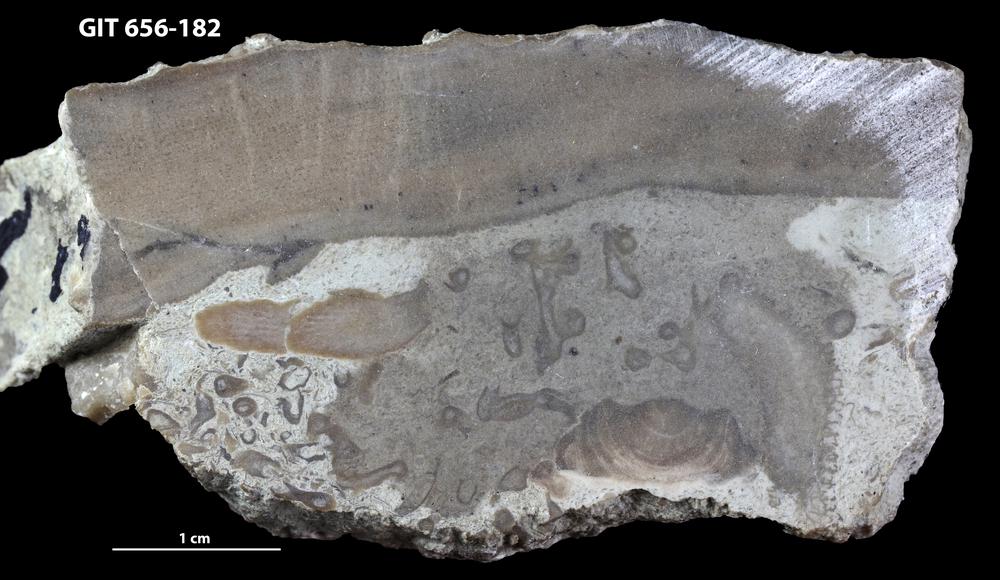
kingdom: Animalia
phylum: Porifera
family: Syringostromellidae
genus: Syringostromella
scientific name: Syringostromella
